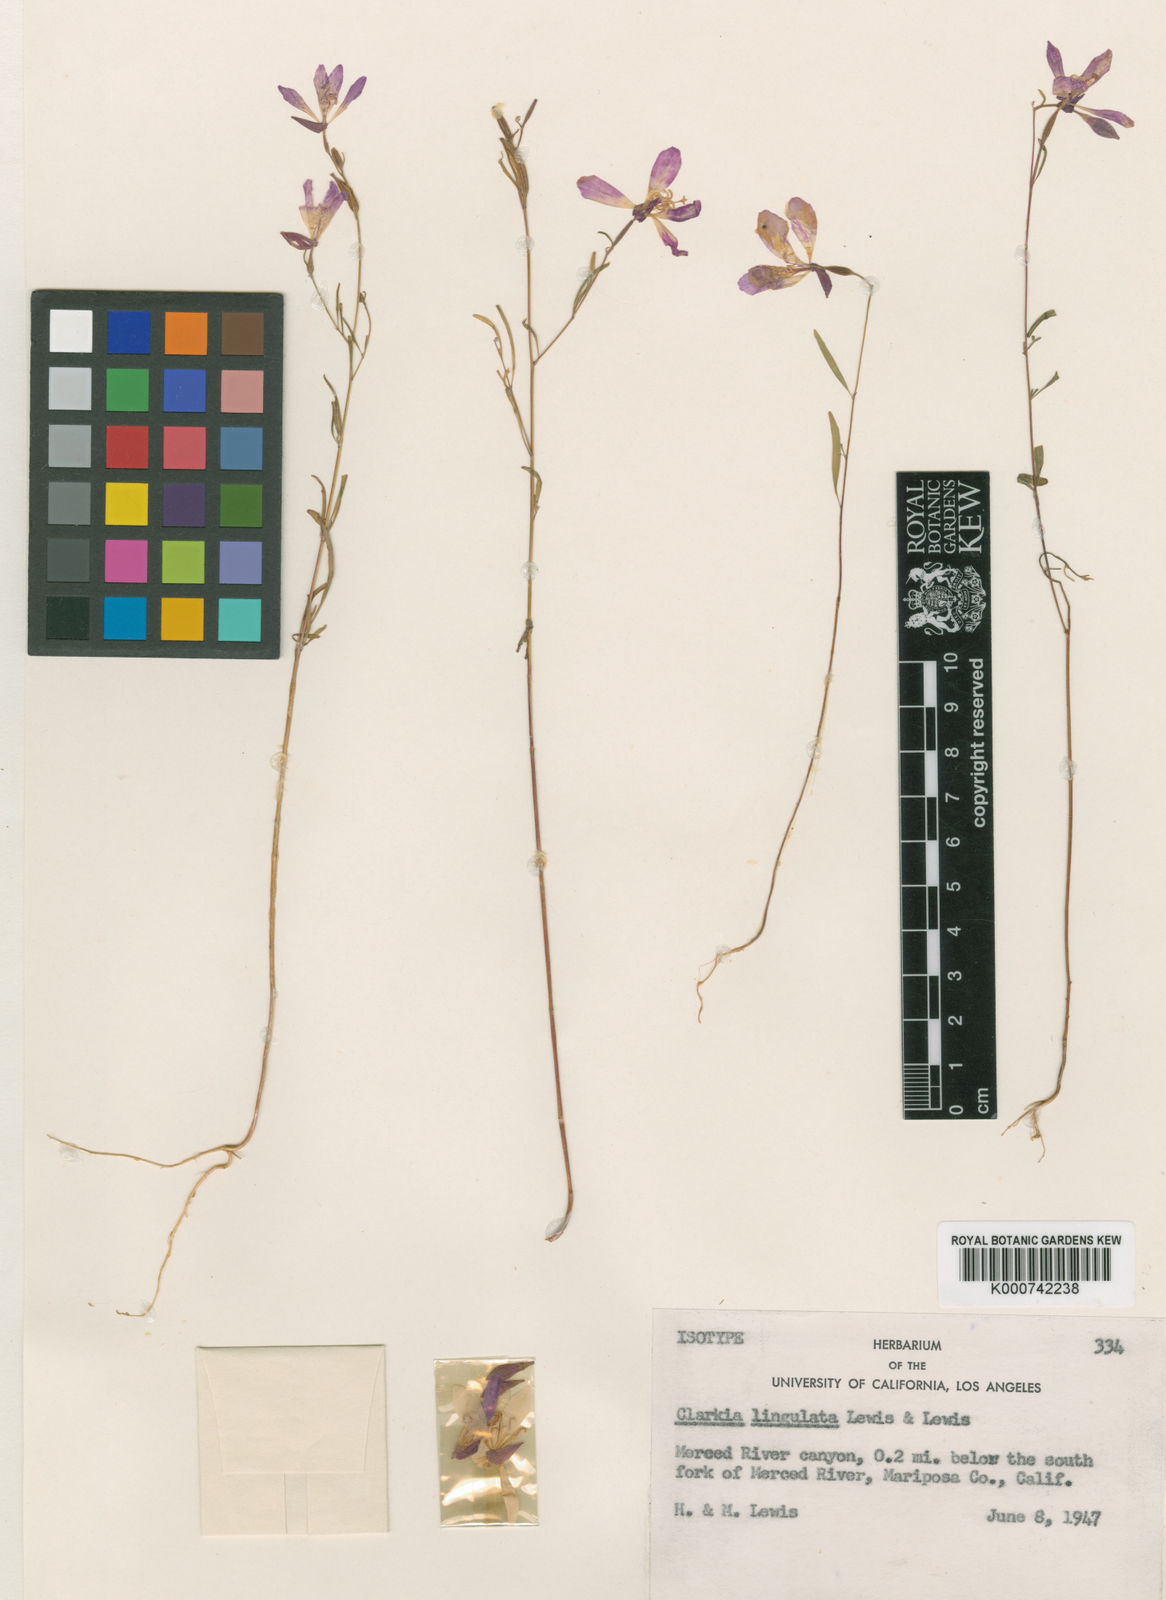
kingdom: Plantae
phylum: Tracheophyta
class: Magnoliopsida
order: Myrtales
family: Onagraceae
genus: Clarkia
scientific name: Clarkia lingulata
